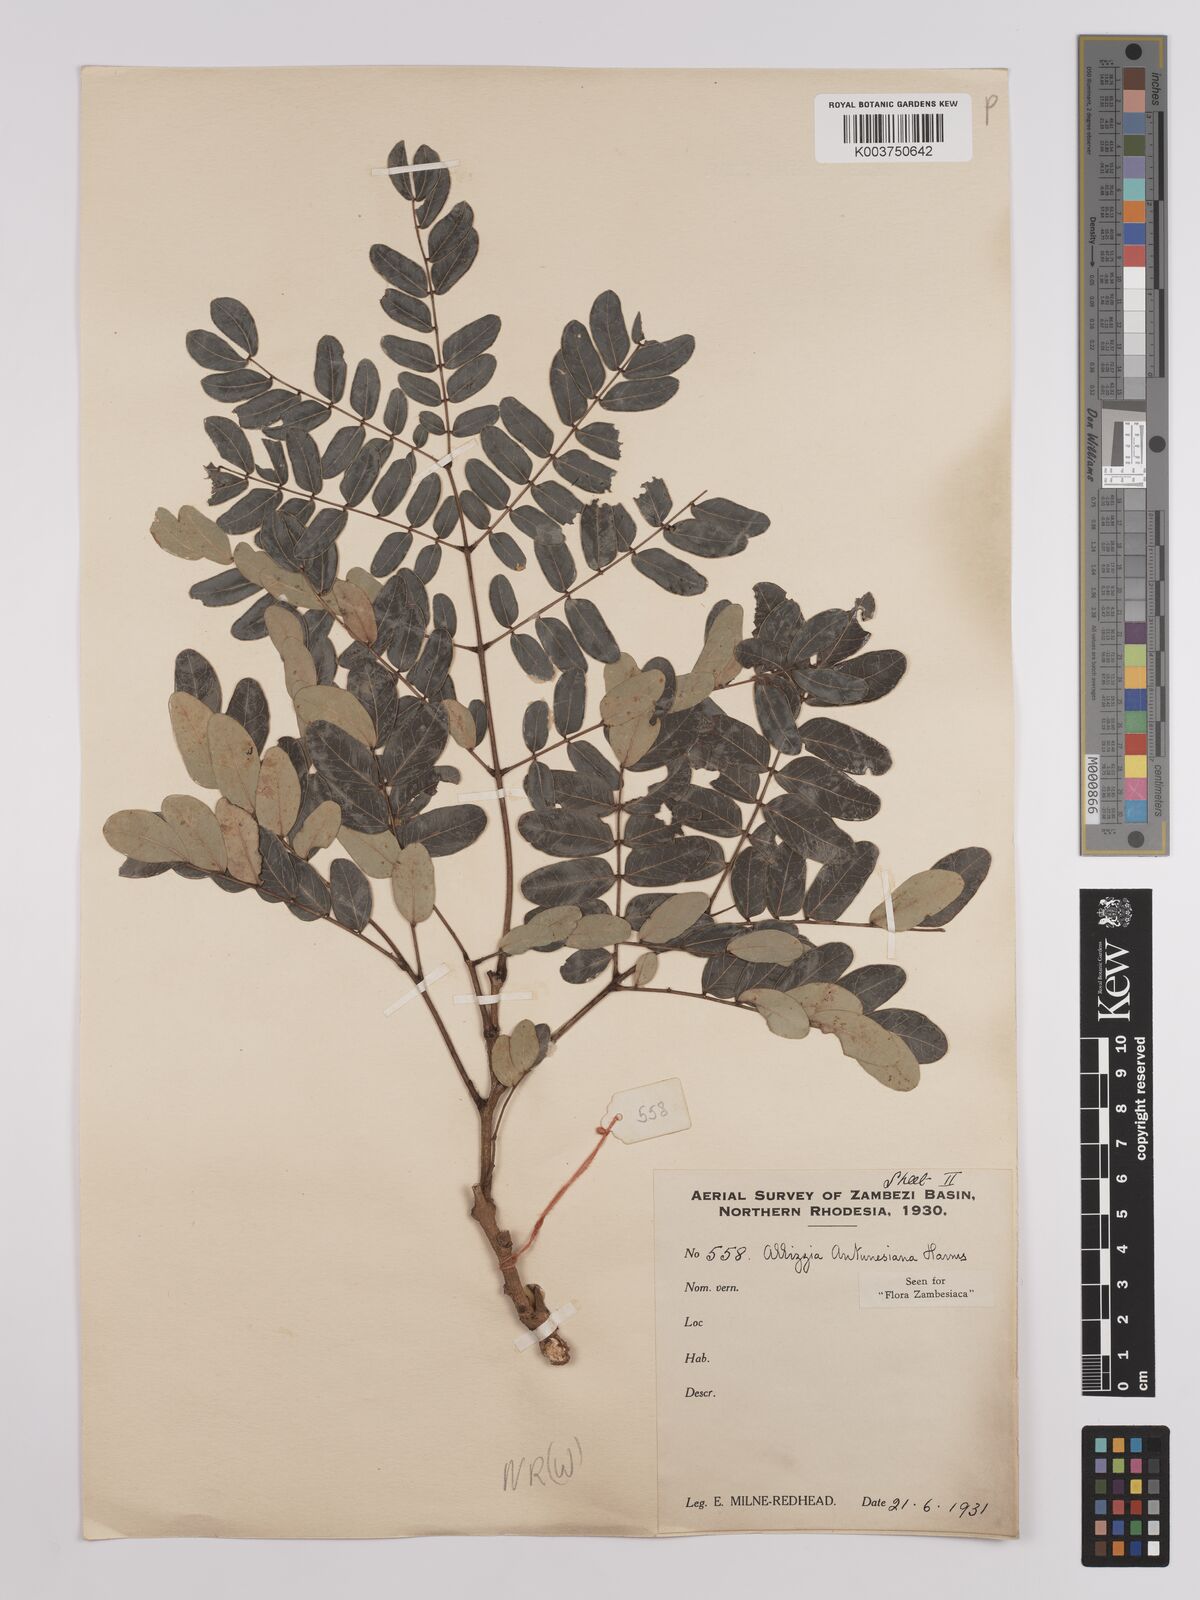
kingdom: Plantae
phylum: Tracheophyta
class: Magnoliopsida
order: Fabales
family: Fabaceae
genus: Albizia
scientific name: Albizia antunesiana
